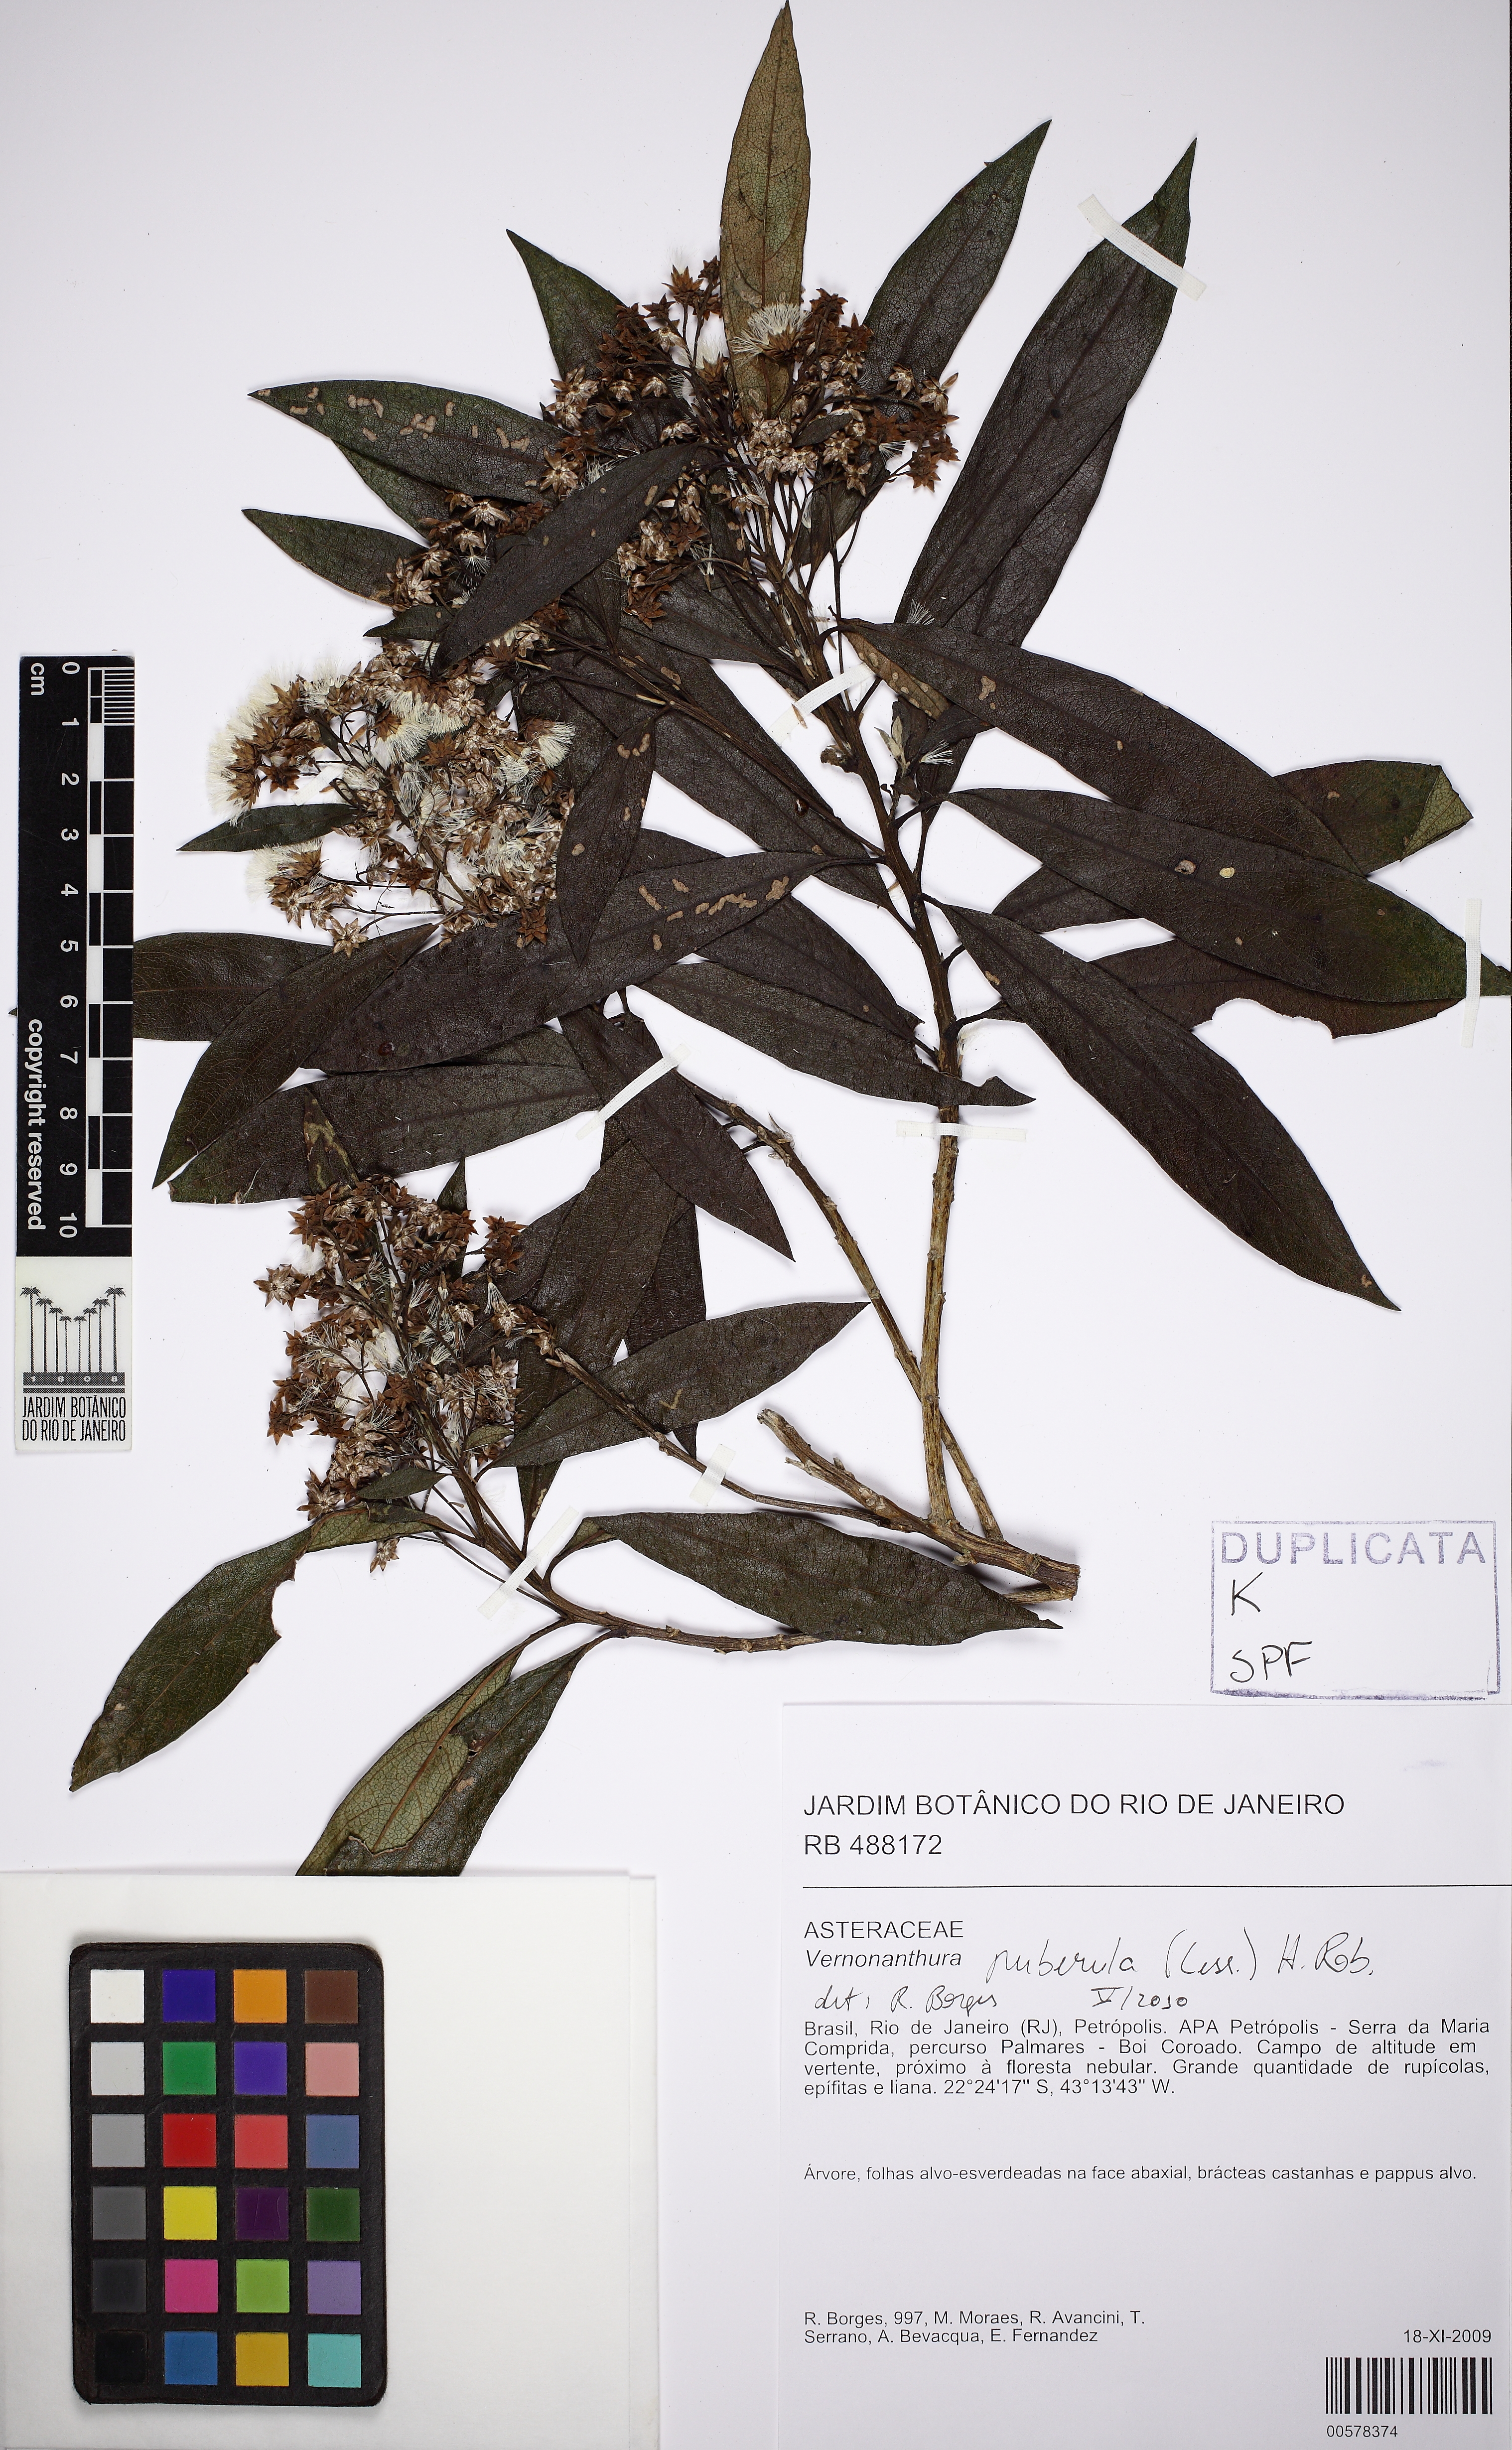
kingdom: Plantae
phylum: Tracheophyta
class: Magnoliopsida
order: Asterales
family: Asteraceae
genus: Vernonanthura
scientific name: Vernonanthura puberula
